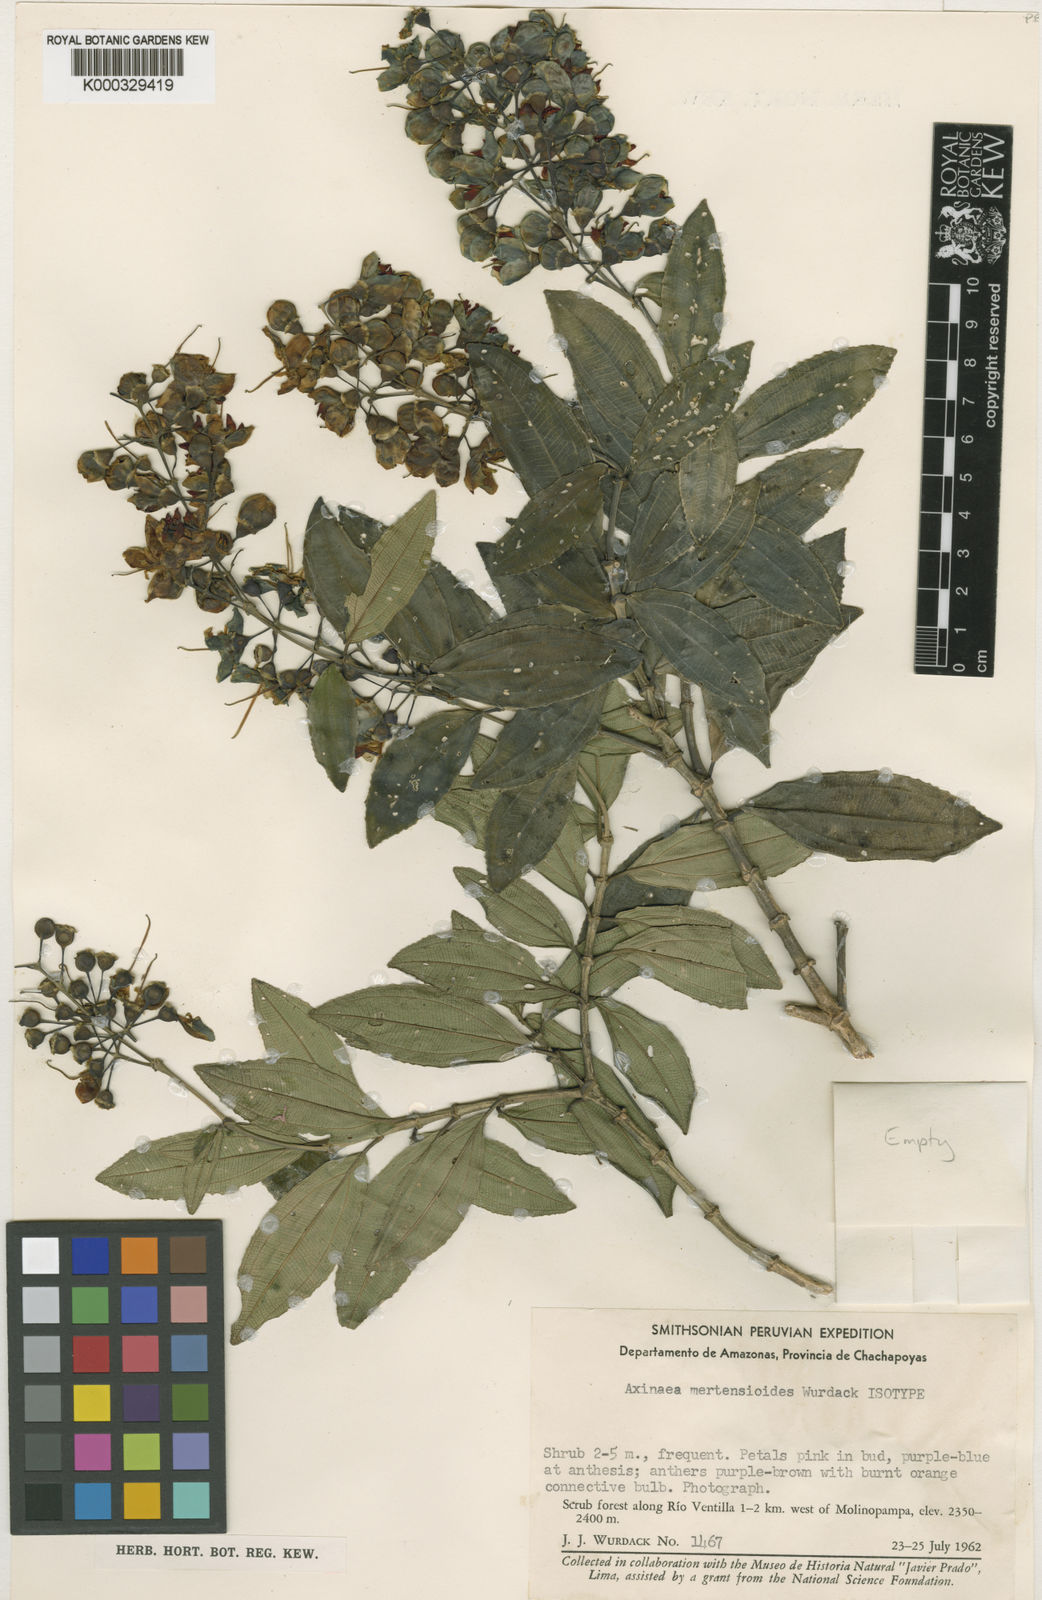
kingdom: Plantae
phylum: Tracheophyta
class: Magnoliopsida
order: Myrtales
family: Melastomataceae
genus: Axinaea
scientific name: Axinaea mertensioides
